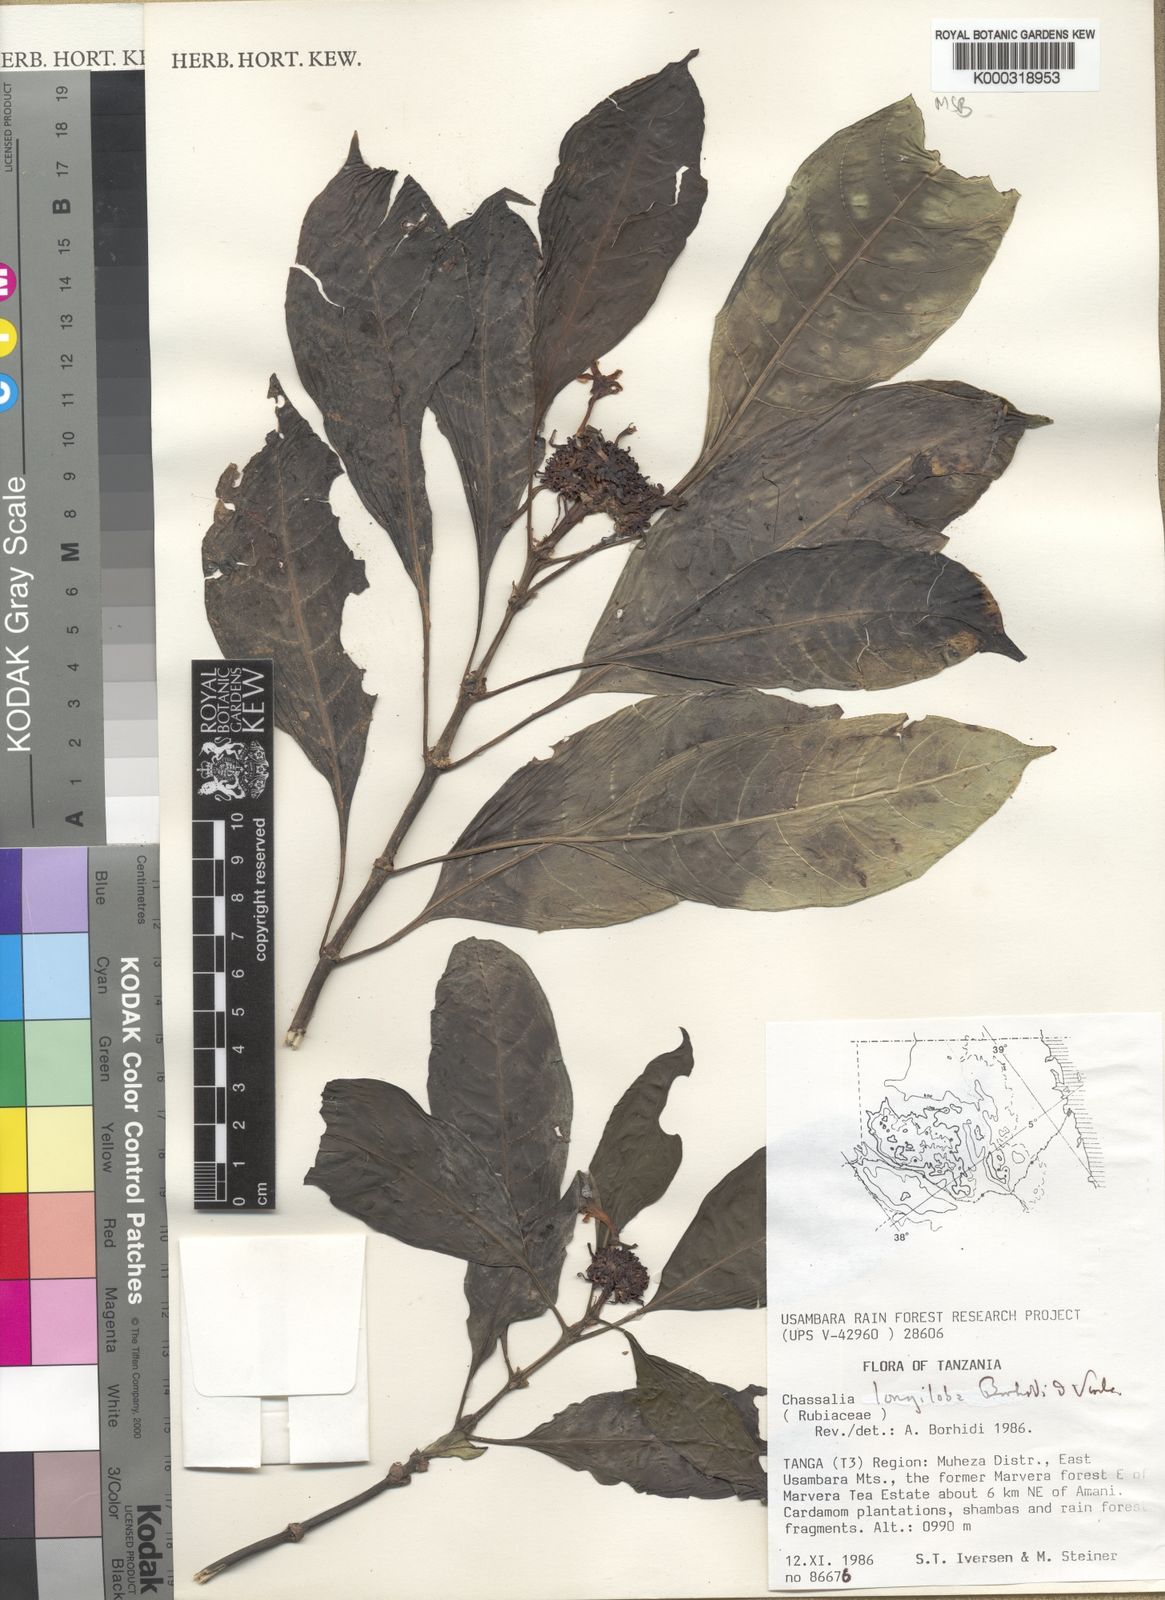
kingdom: Plantae
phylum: Tracheophyta
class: Magnoliopsida
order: Gentianales
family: Rubiaceae
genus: Chassalia
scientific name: Chassalia longiloba
